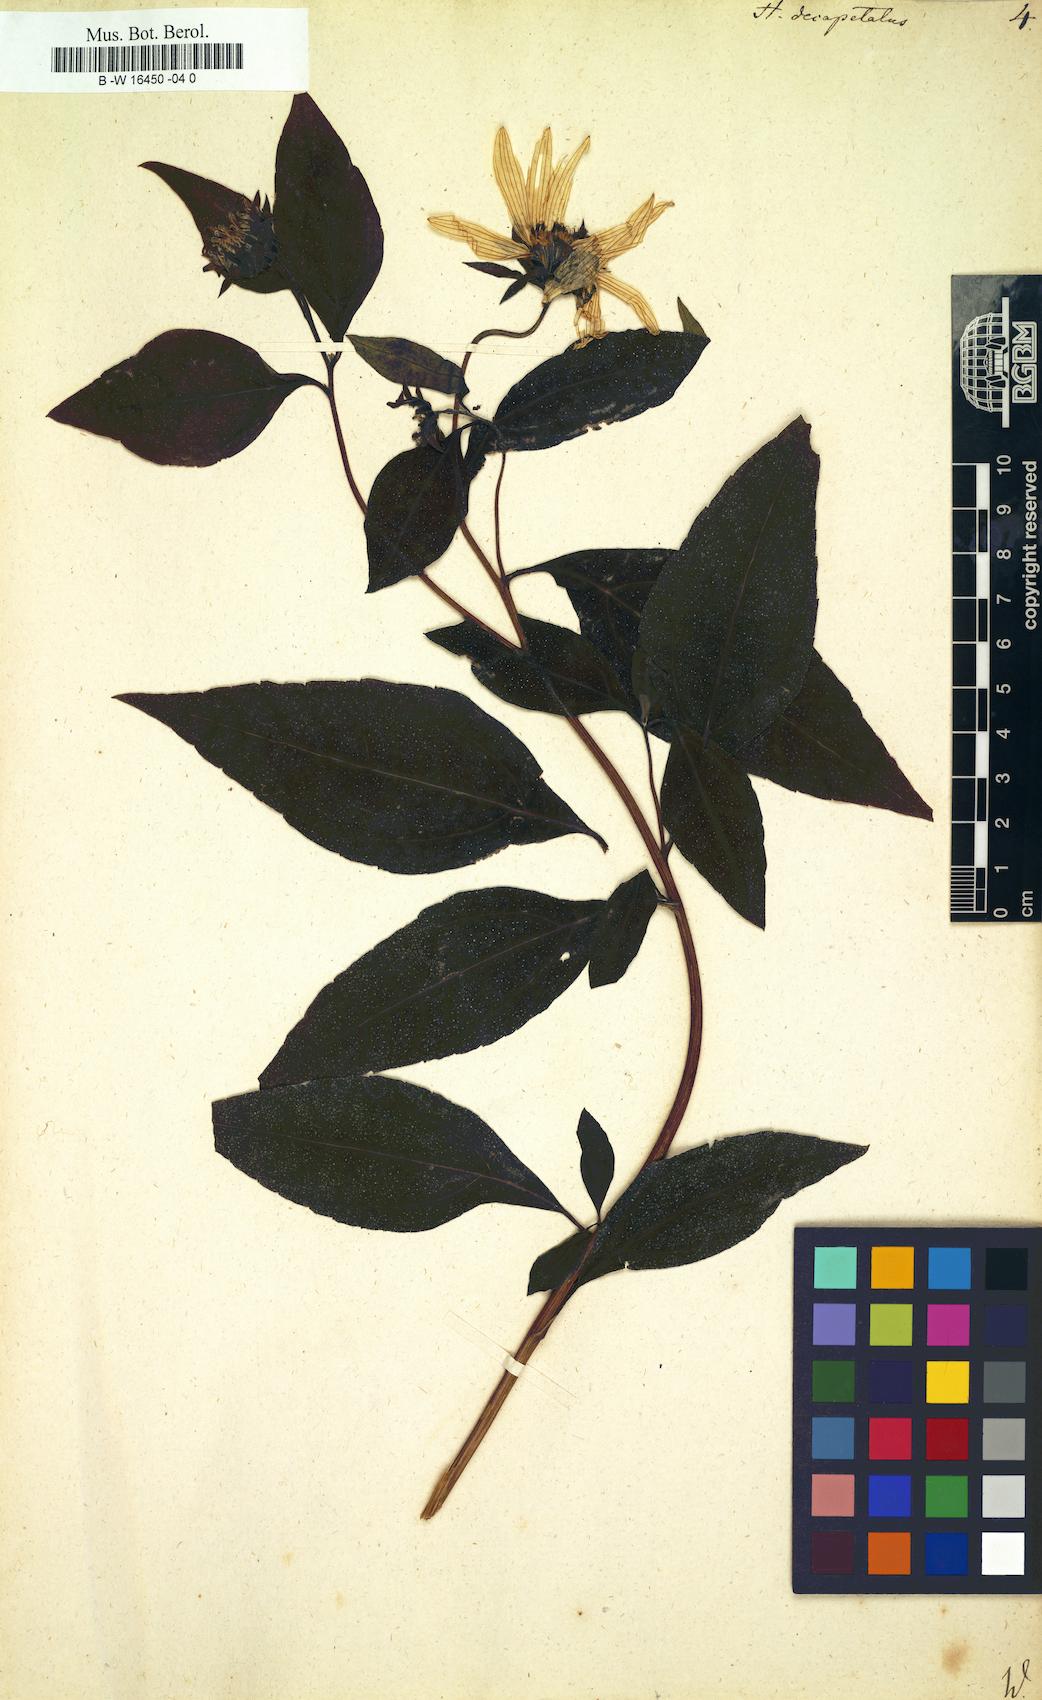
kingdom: Plantae
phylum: Tracheophyta
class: Magnoliopsida
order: Asterales
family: Asteraceae
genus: Helianthus
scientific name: Helianthus strumosus
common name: Pale-leaved sunflower
